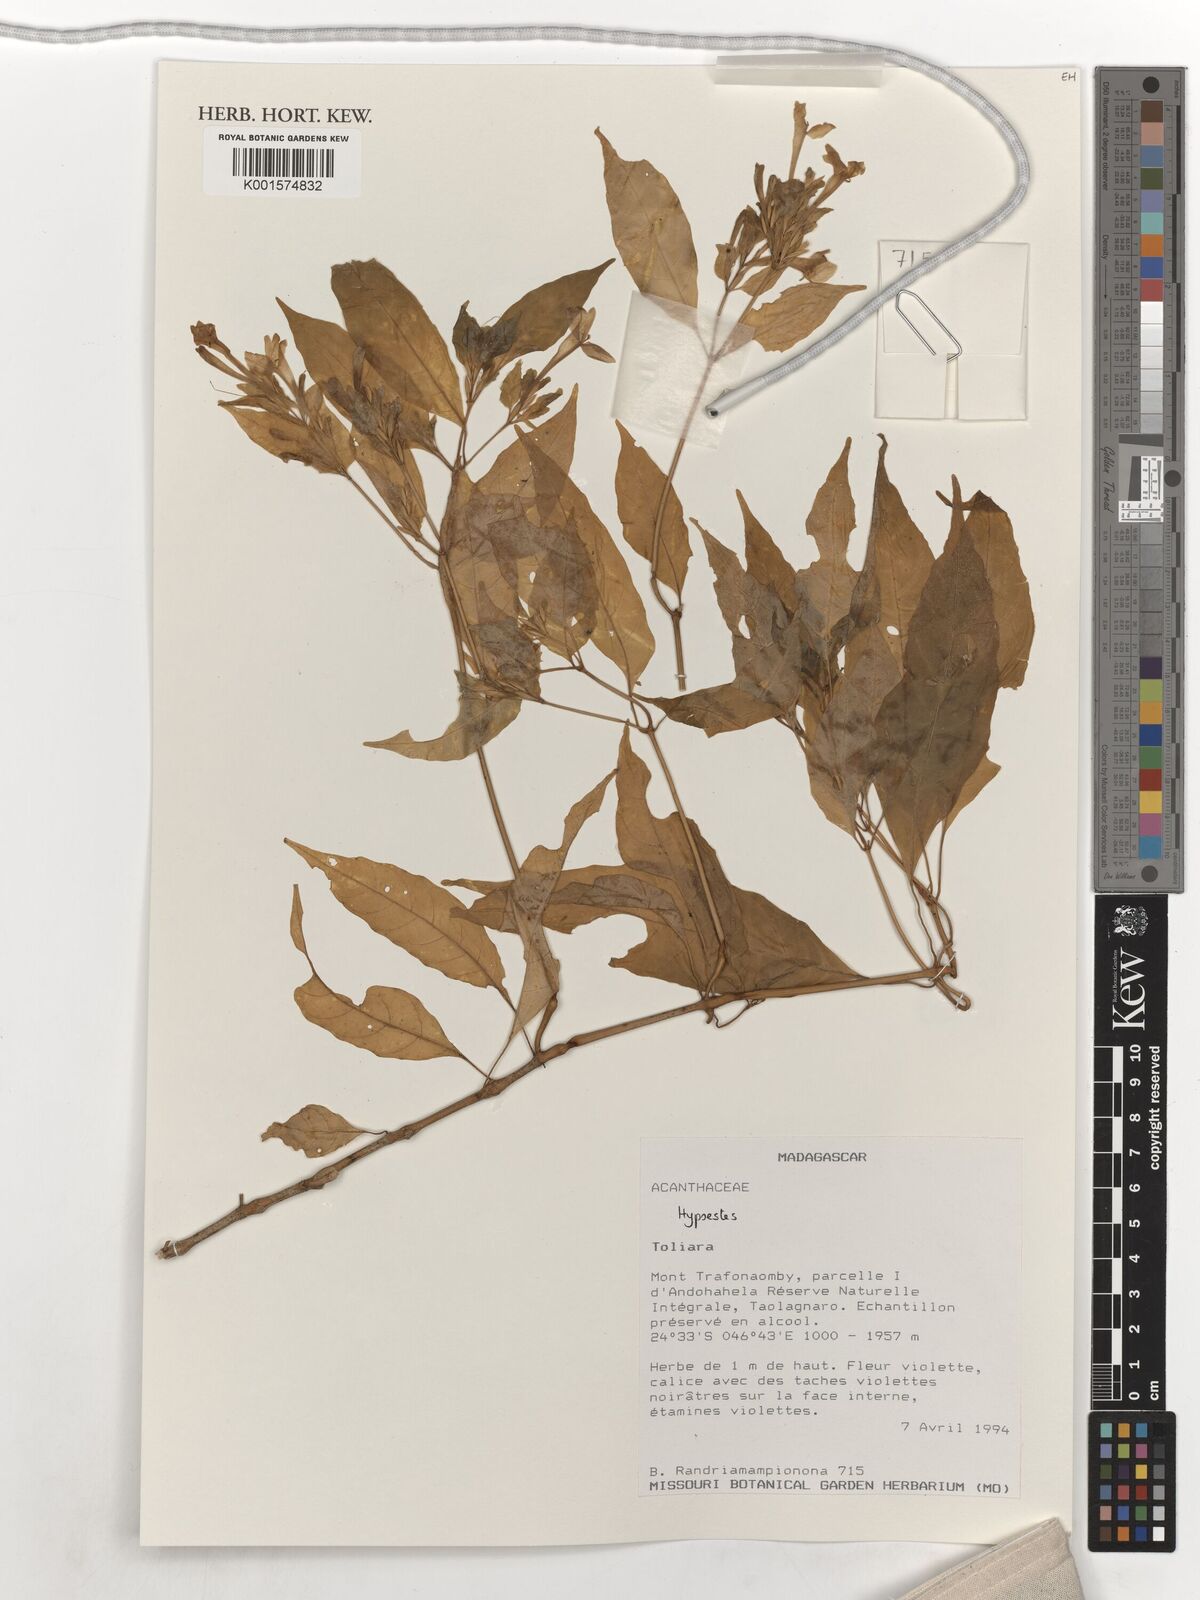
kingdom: Plantae
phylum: Tracheophyta
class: Magnoliopsida
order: Lamiales
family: Acanthaceae
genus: Hypoestes
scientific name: Hypoestes
